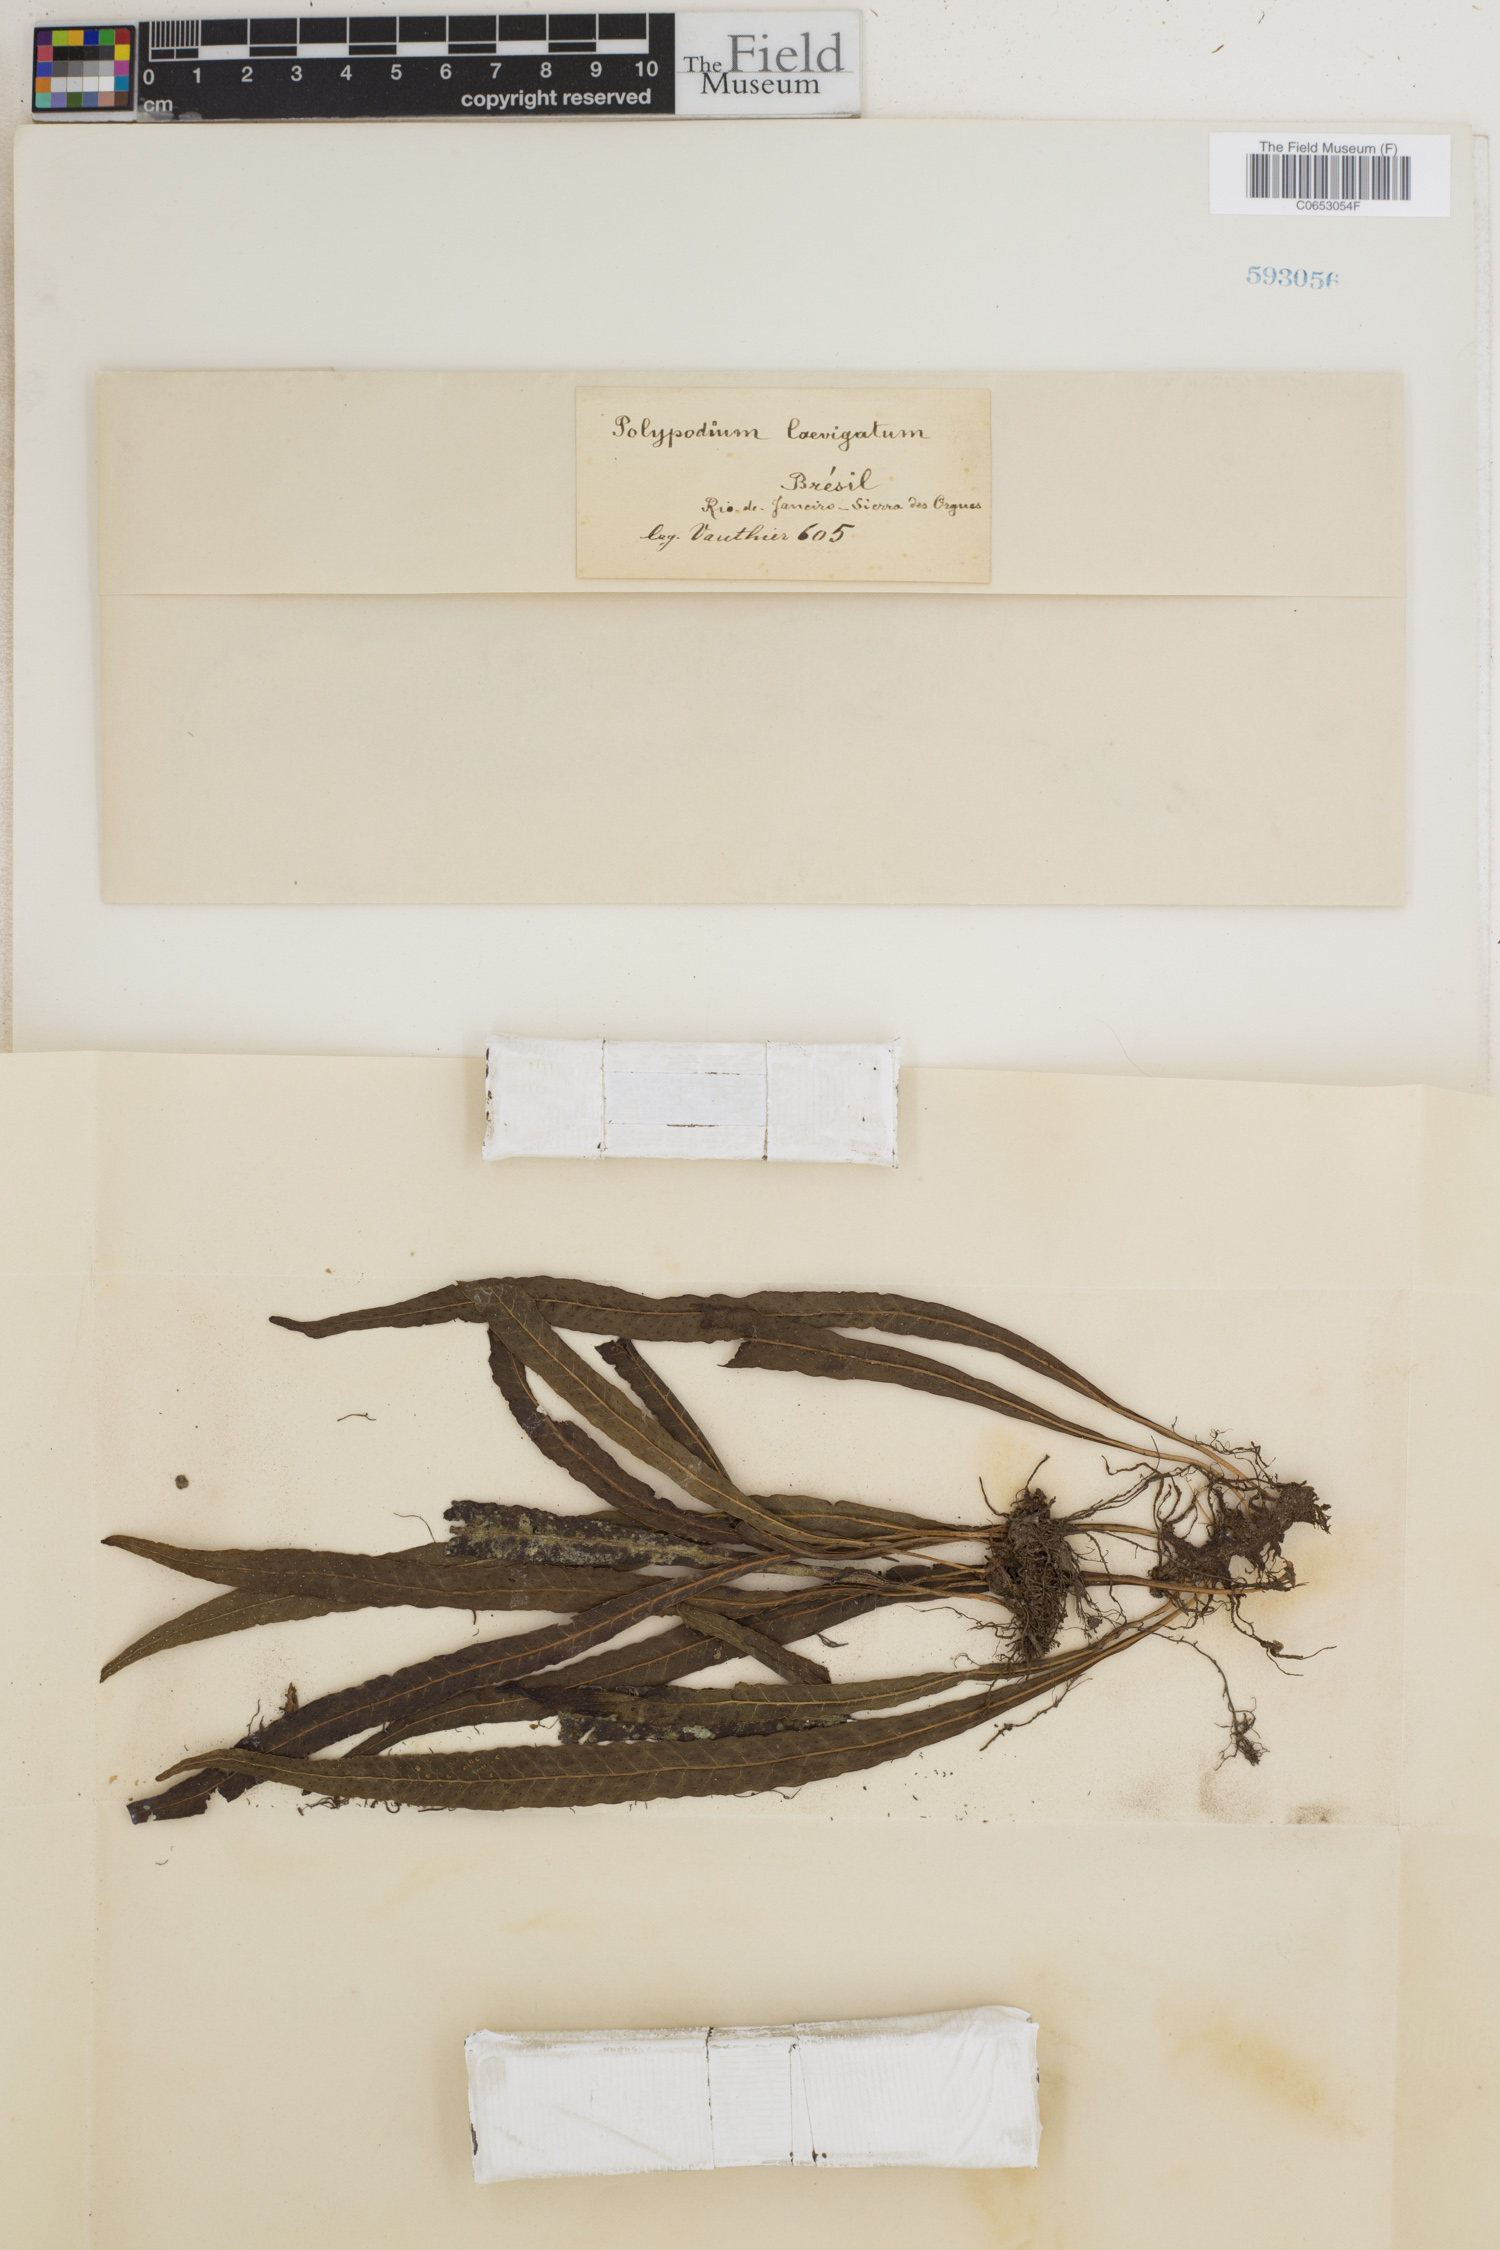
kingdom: Plantae
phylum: Tracheophyta
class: Polypodiopsida
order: Polypodiales
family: Polypodiaceae
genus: Campyloneurum
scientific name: Campyloneurum aphanophlebium
